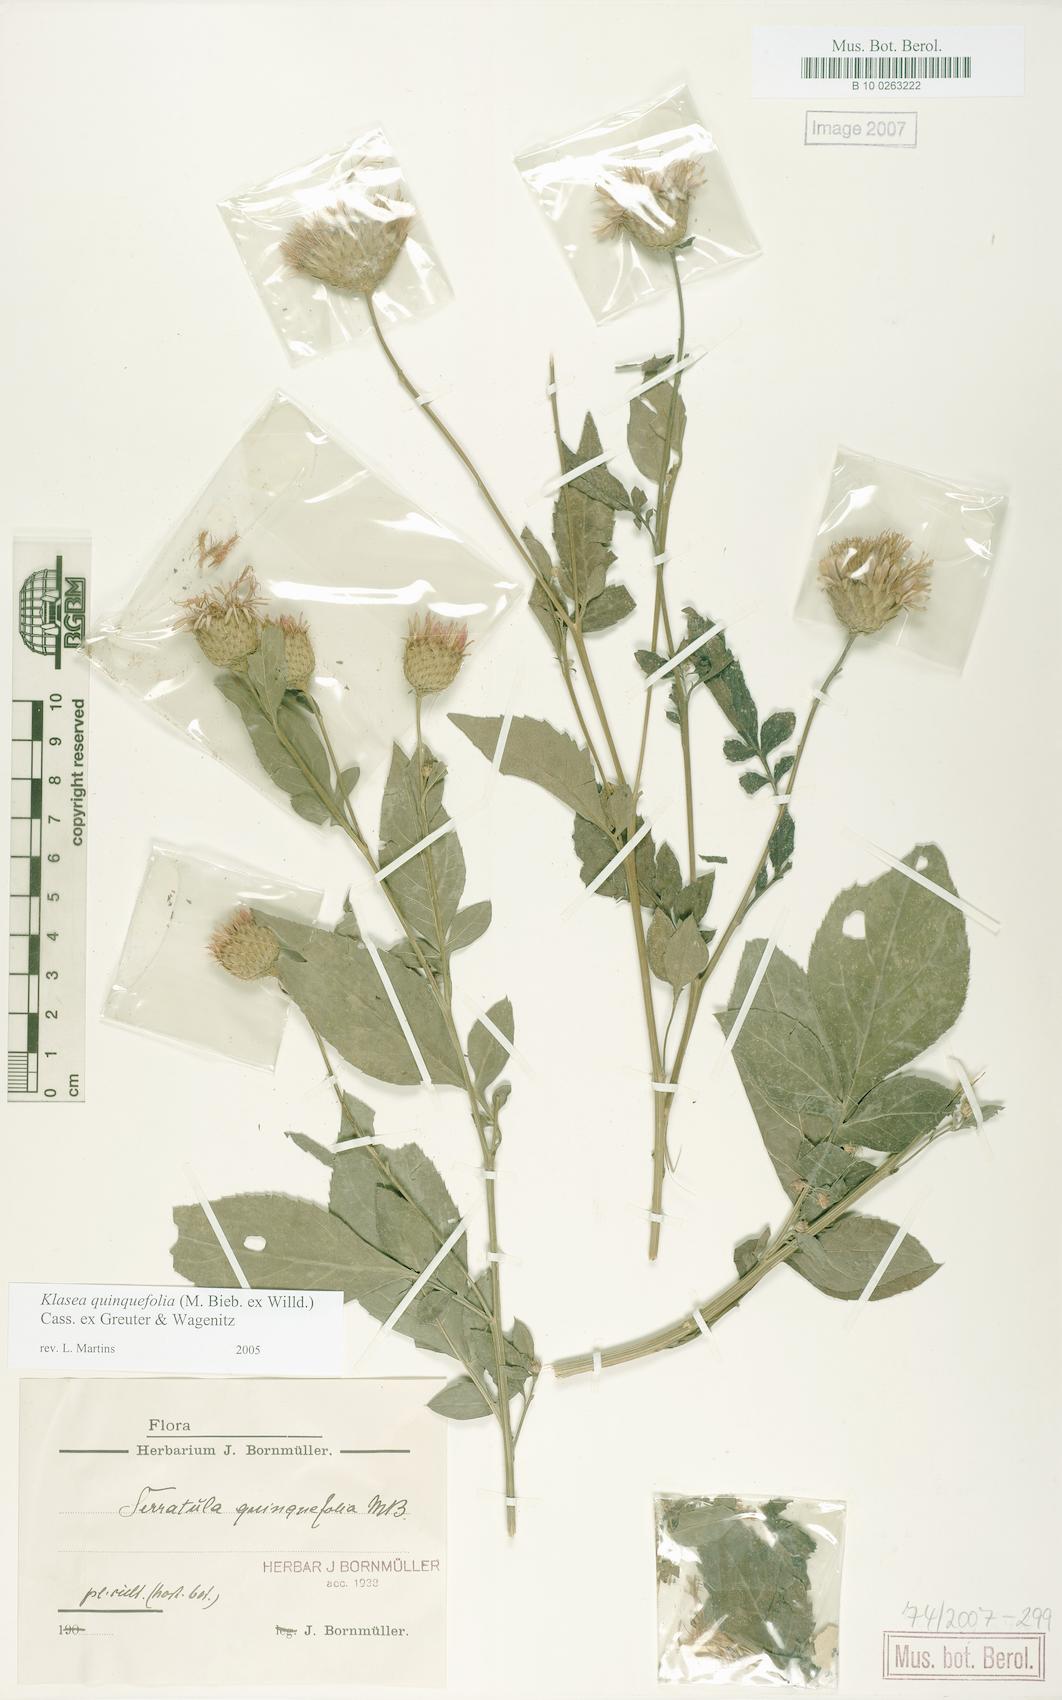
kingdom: Plantae
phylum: Tracheophyta
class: Magnoliopsida
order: Asterales
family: Asteraceae
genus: Klasea
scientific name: Klasea quinquefolia
